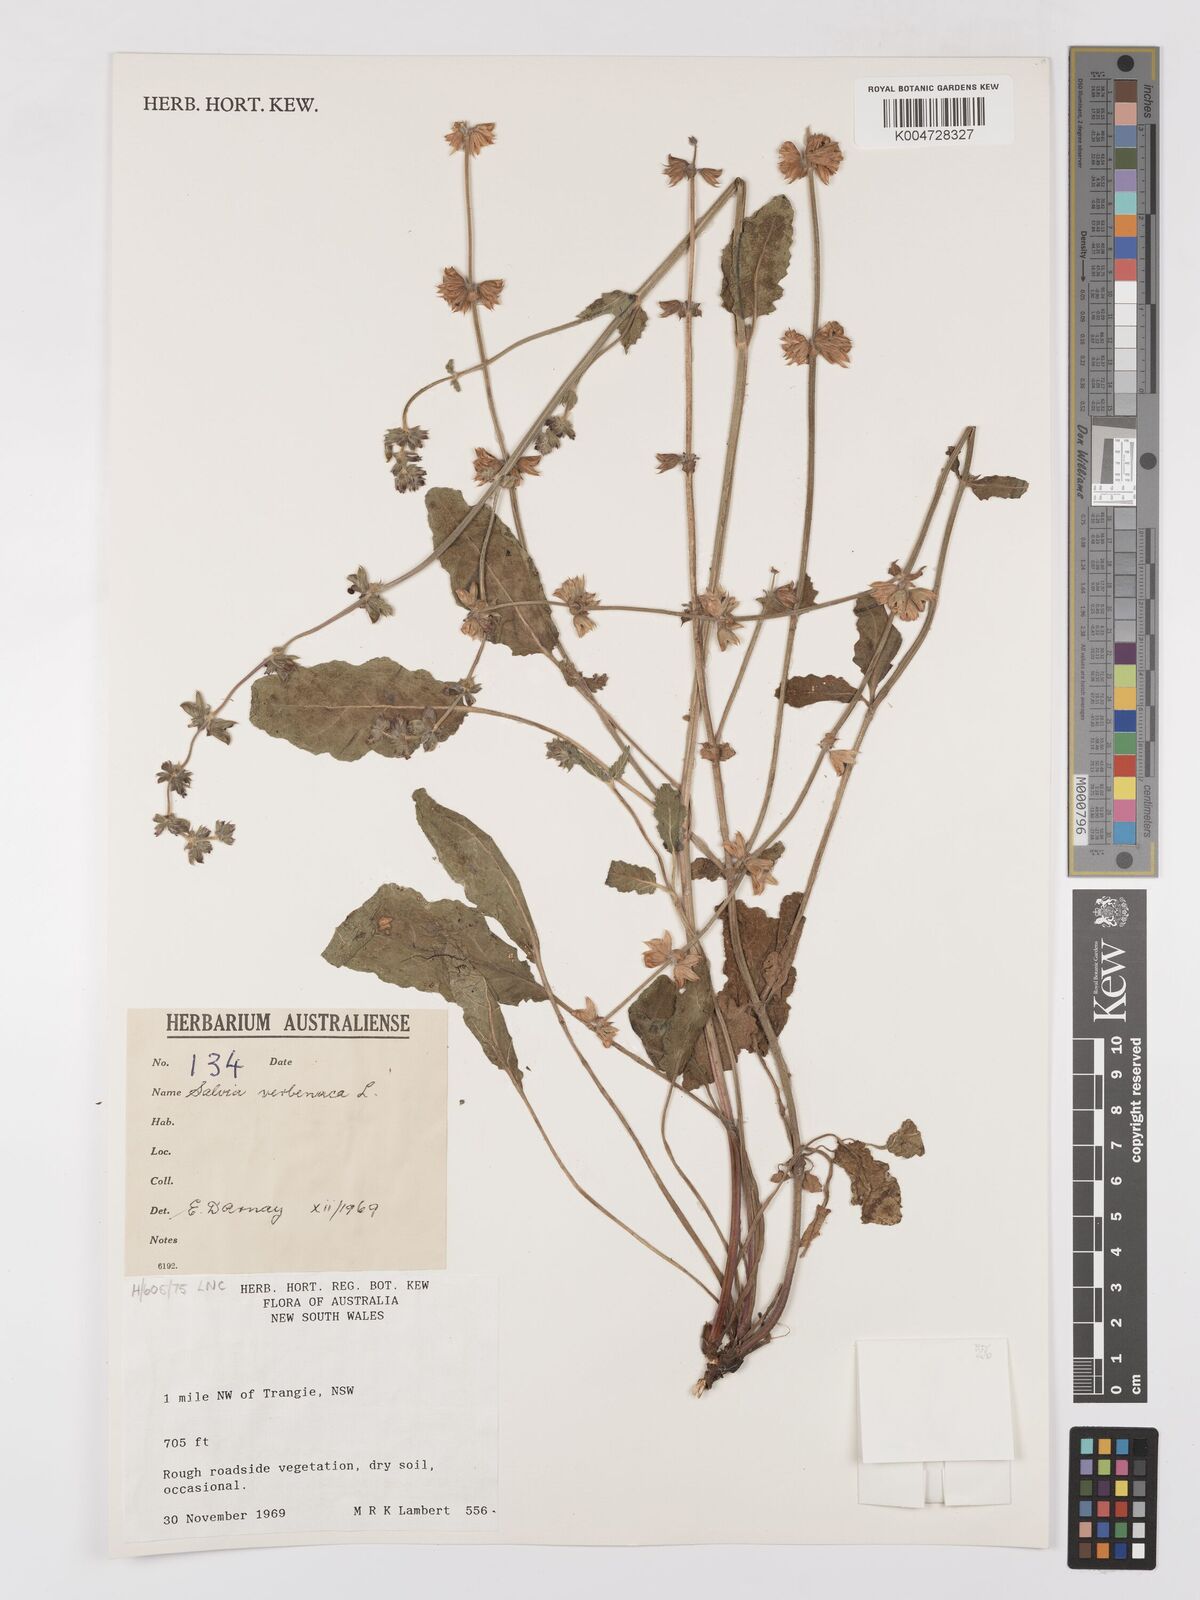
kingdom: Plantae
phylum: Tracheophyta
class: Magnoliopsida
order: Lamiales
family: Lamiaceae
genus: Salvia
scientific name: Salvia verbenaca
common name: Wild clary
